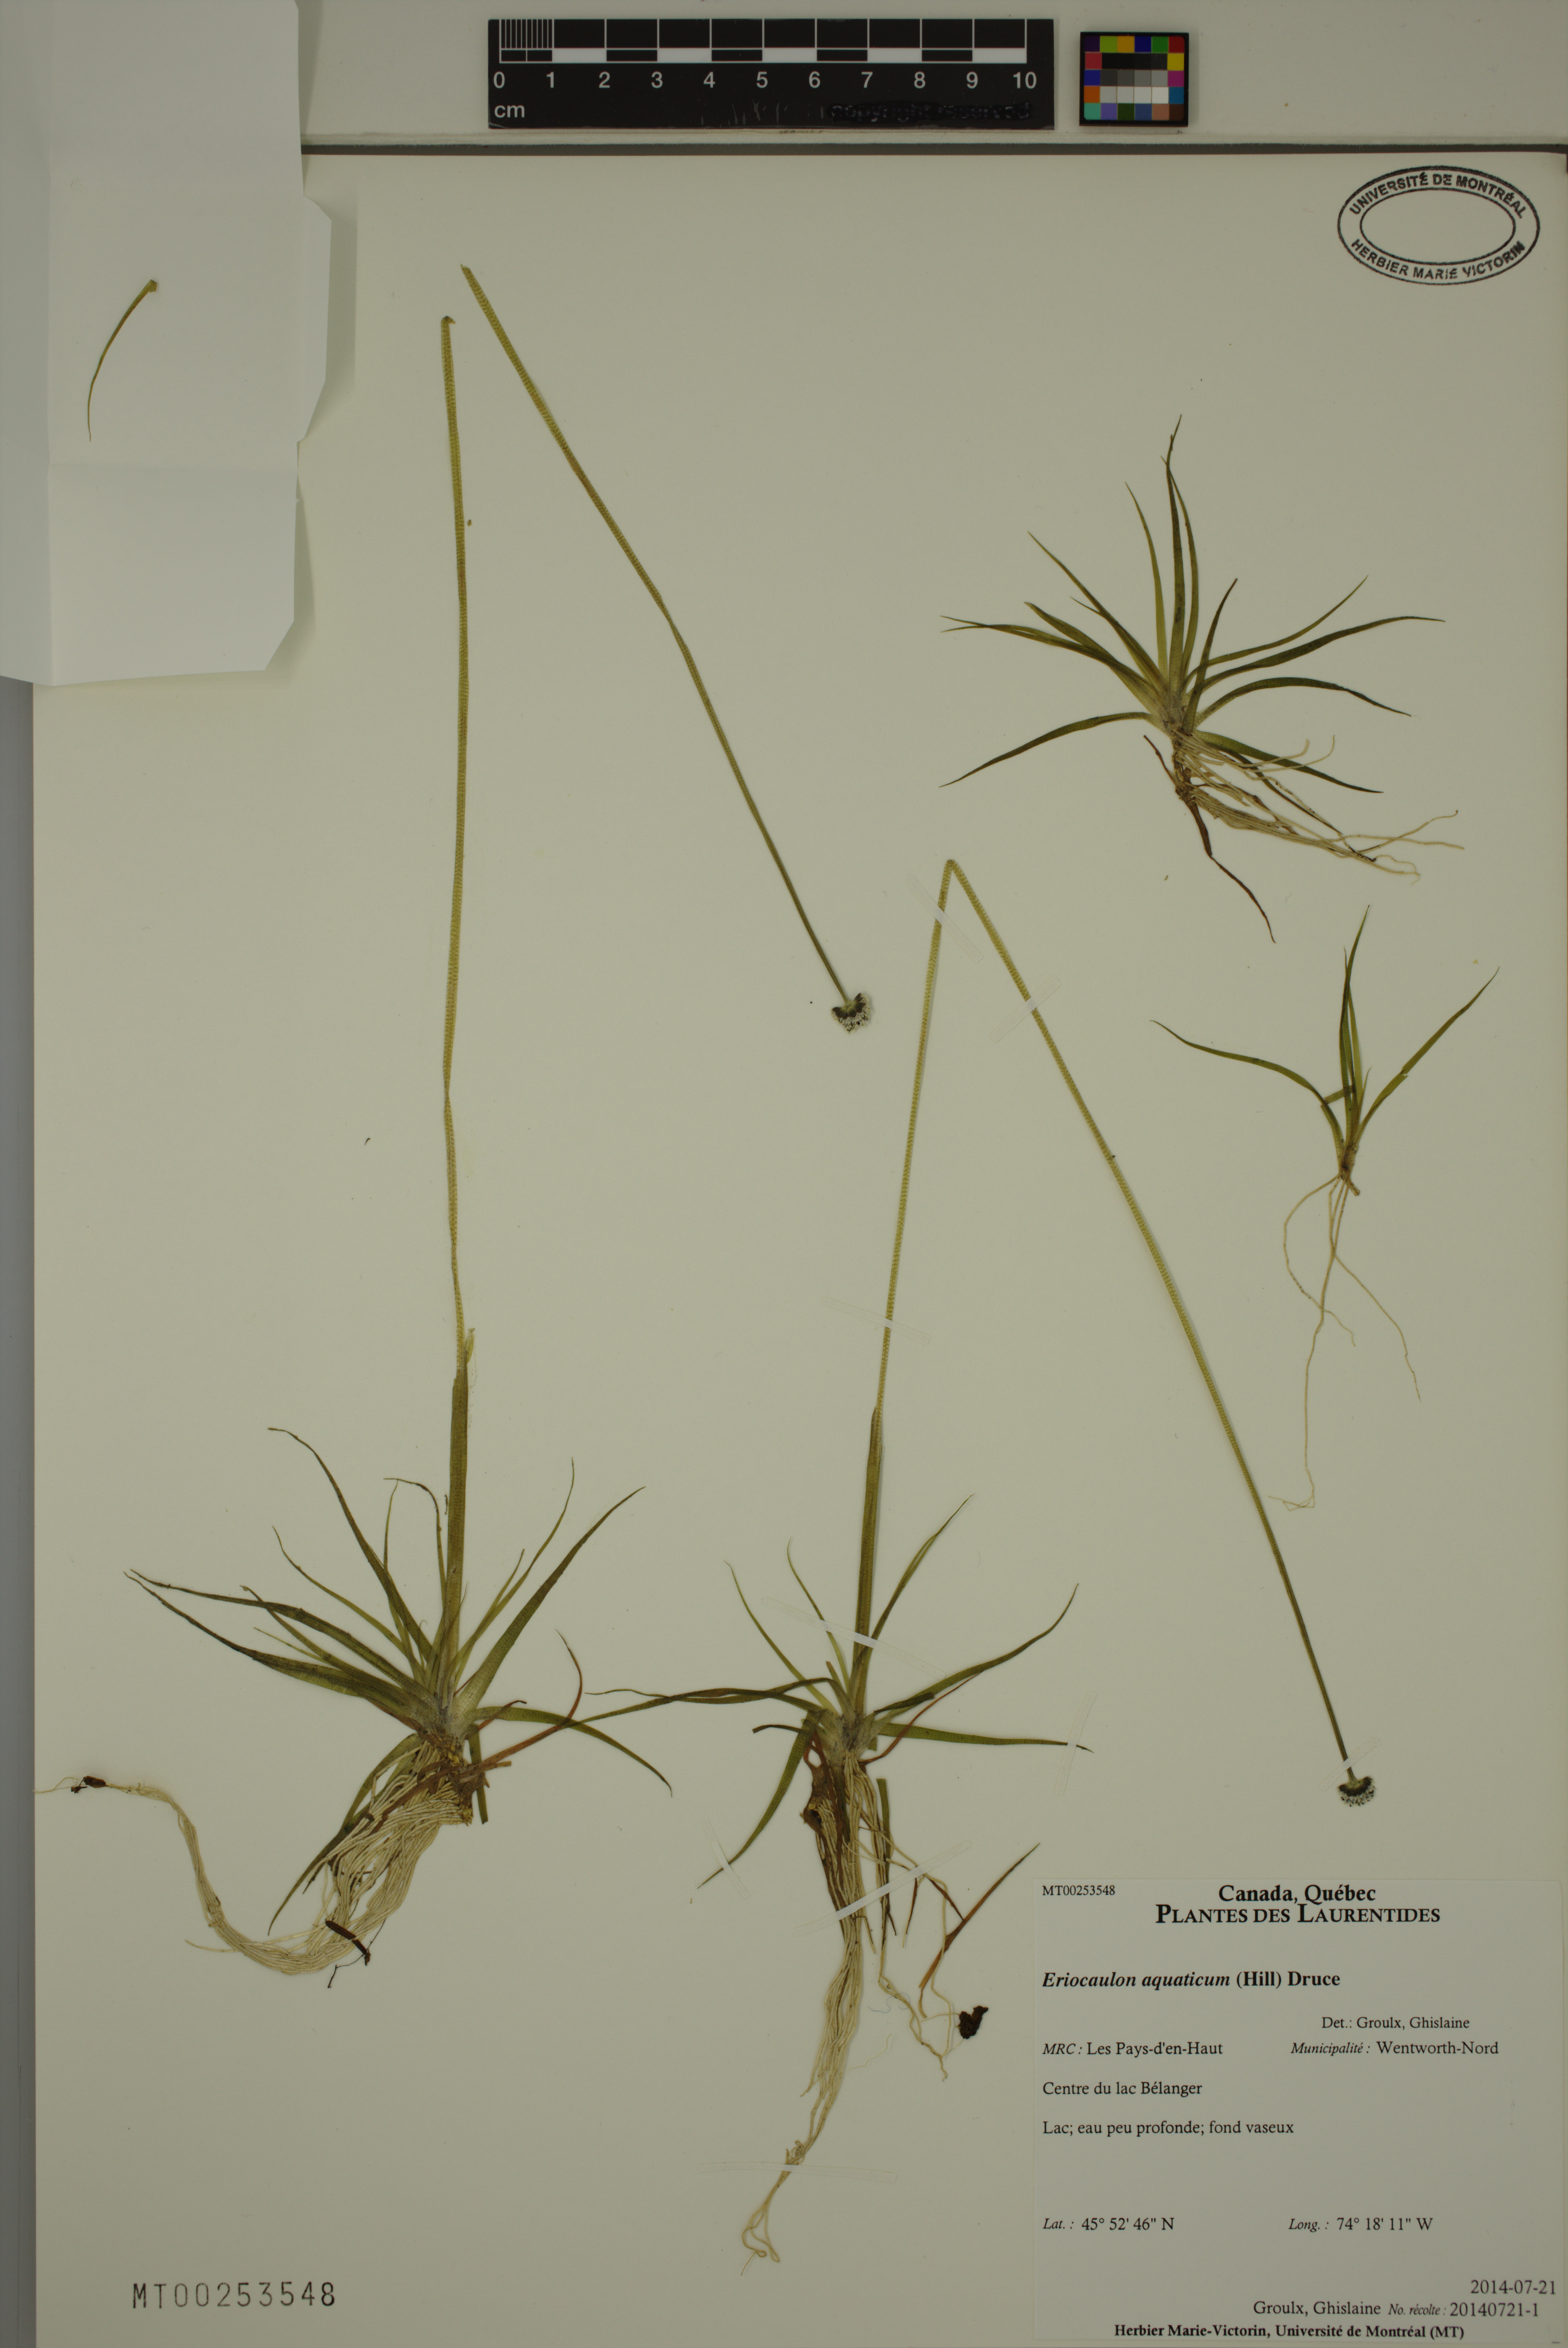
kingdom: Plantae
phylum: Tracheophyta
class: Liliopsida
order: Poales
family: Eriocaulaceae
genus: Eriocaulon
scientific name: Eriocaulon aquaticum
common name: Pipewort
